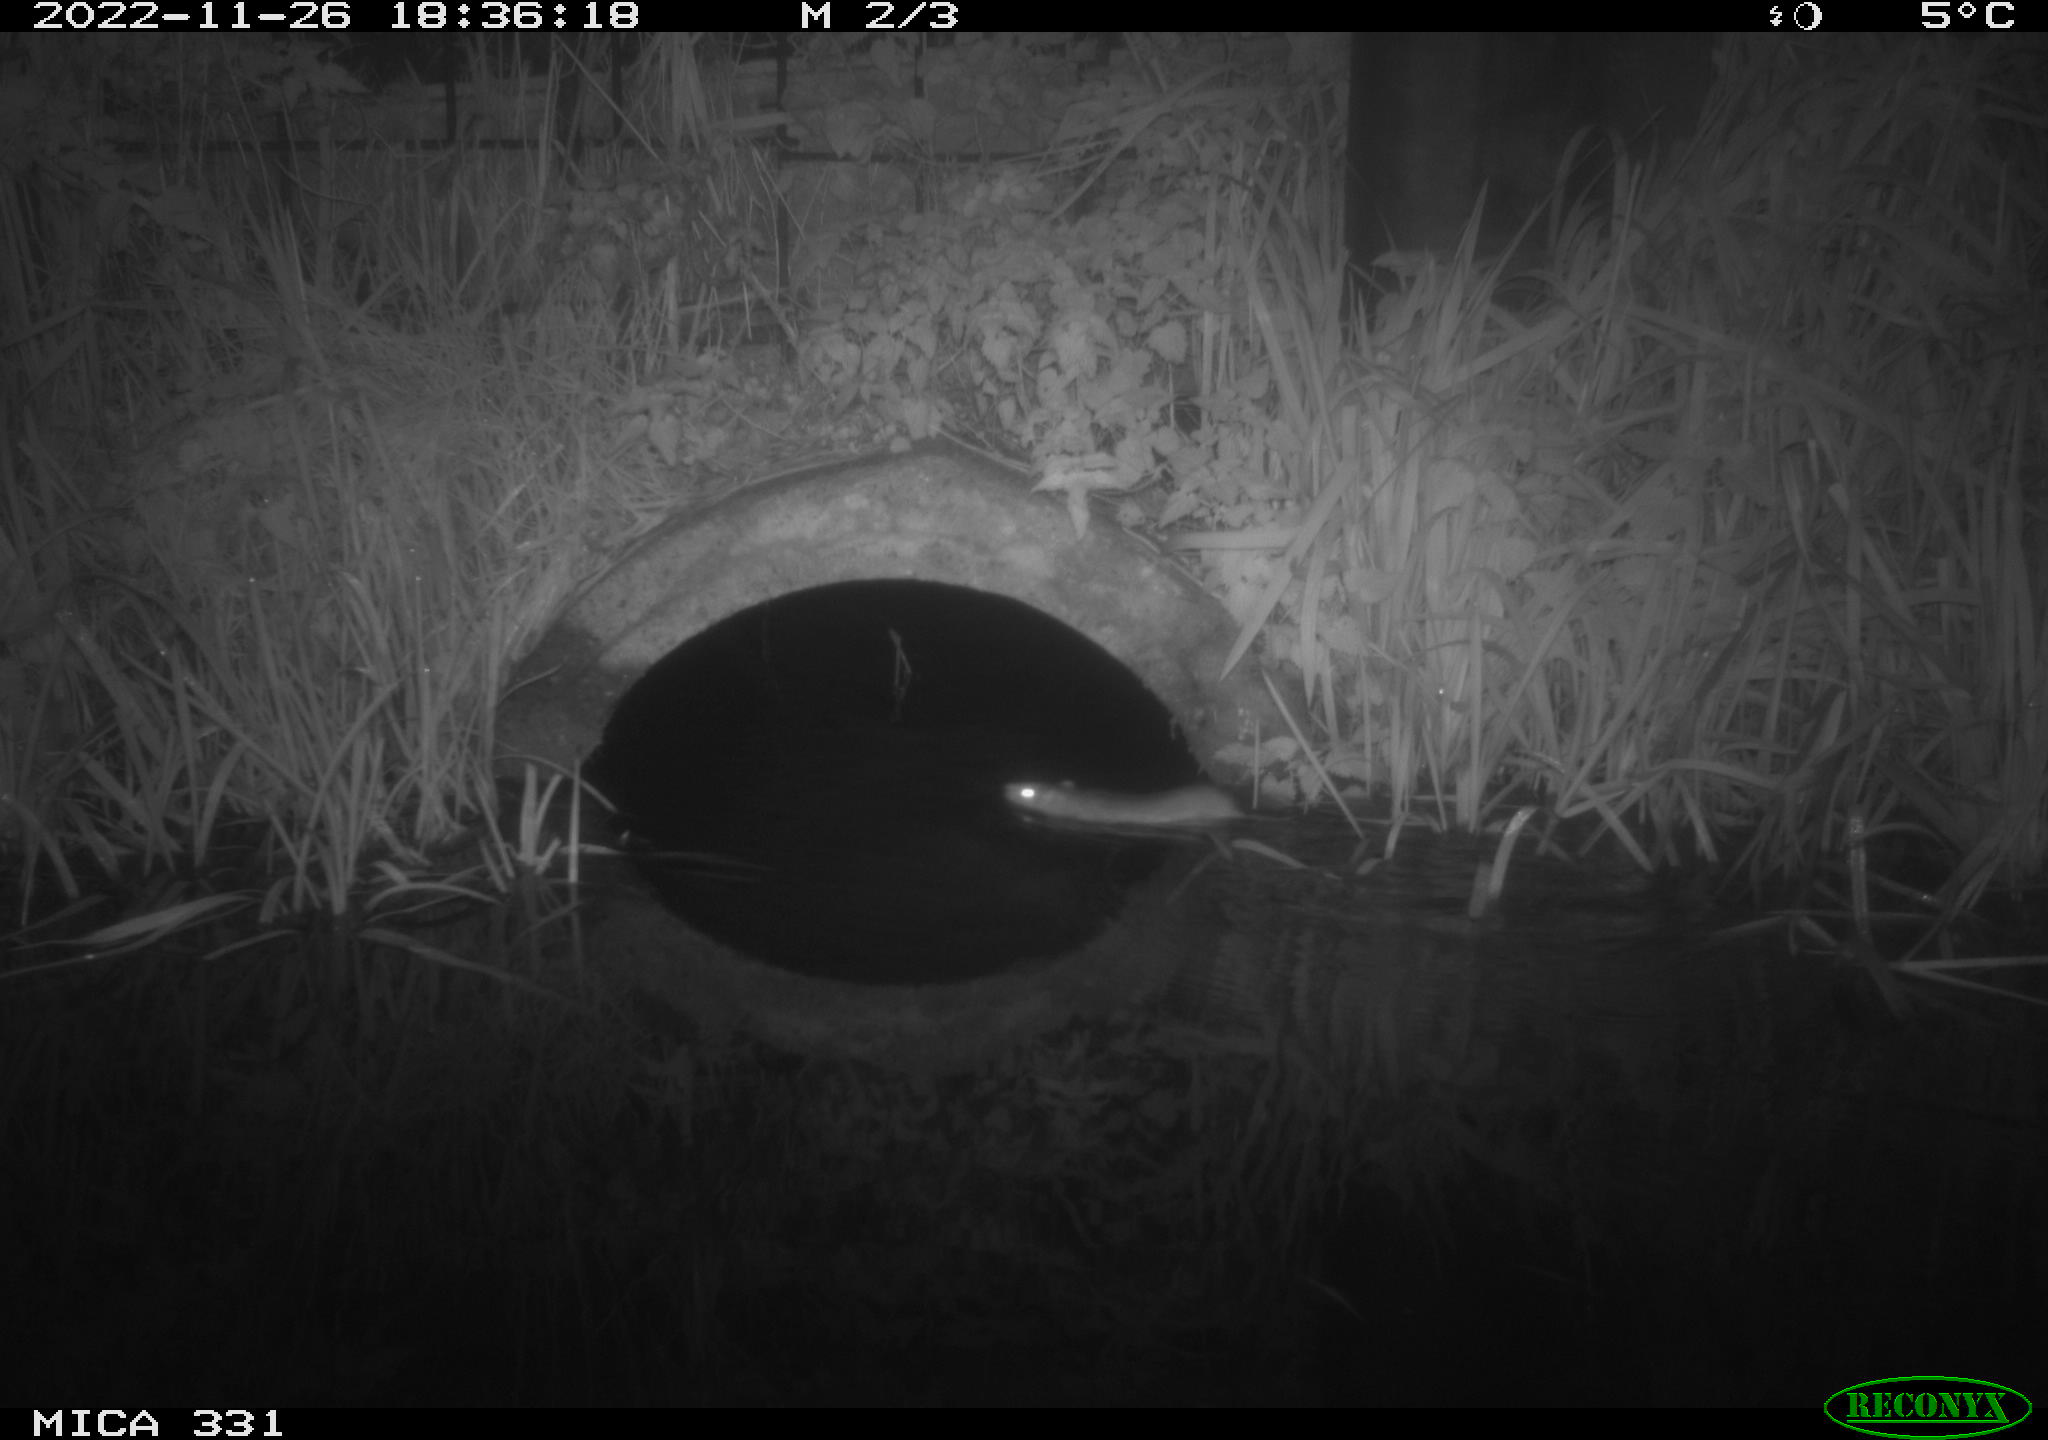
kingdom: Animalia
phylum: Chordata
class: Mammalia
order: Rodentia
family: Muridae
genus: Rattus
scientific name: Rattus norvegicus
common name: Brown rat
